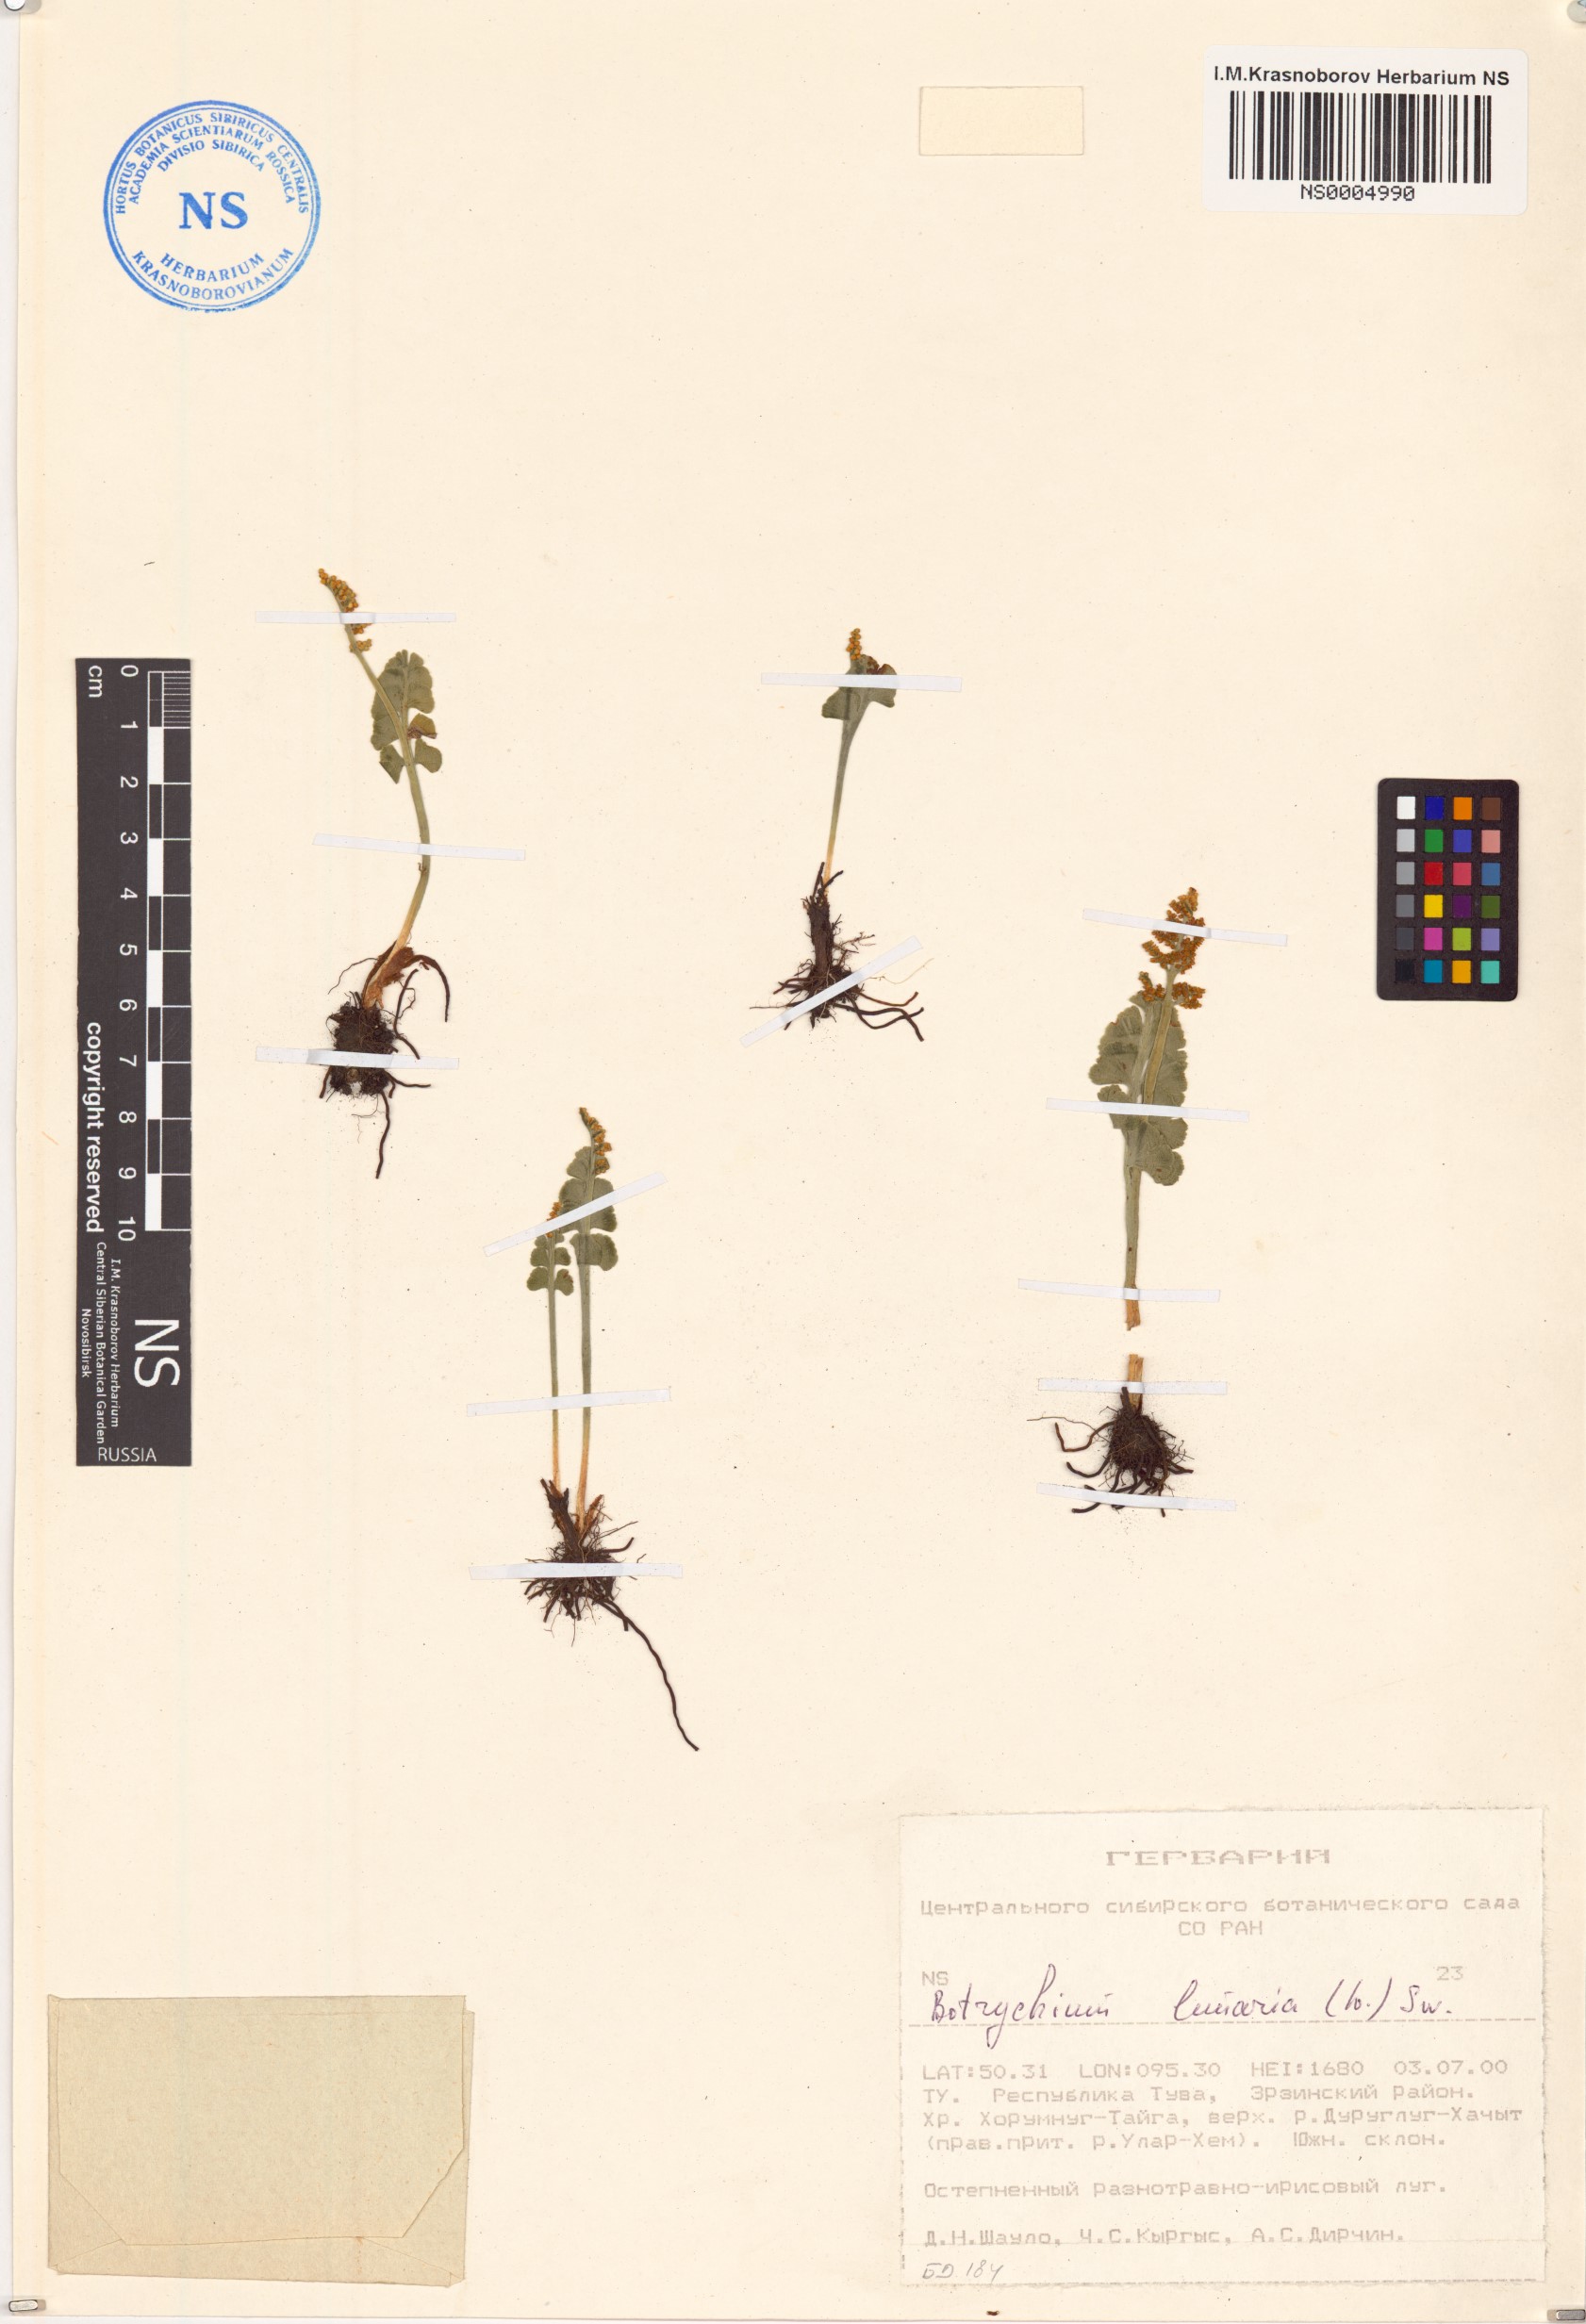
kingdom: Plantae
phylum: Tracheophyta
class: Polypodiopsida
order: Ophioglossales
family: Ophioglossaceae
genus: Botrychium
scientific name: Botrychium lunaria
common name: Moonwort
